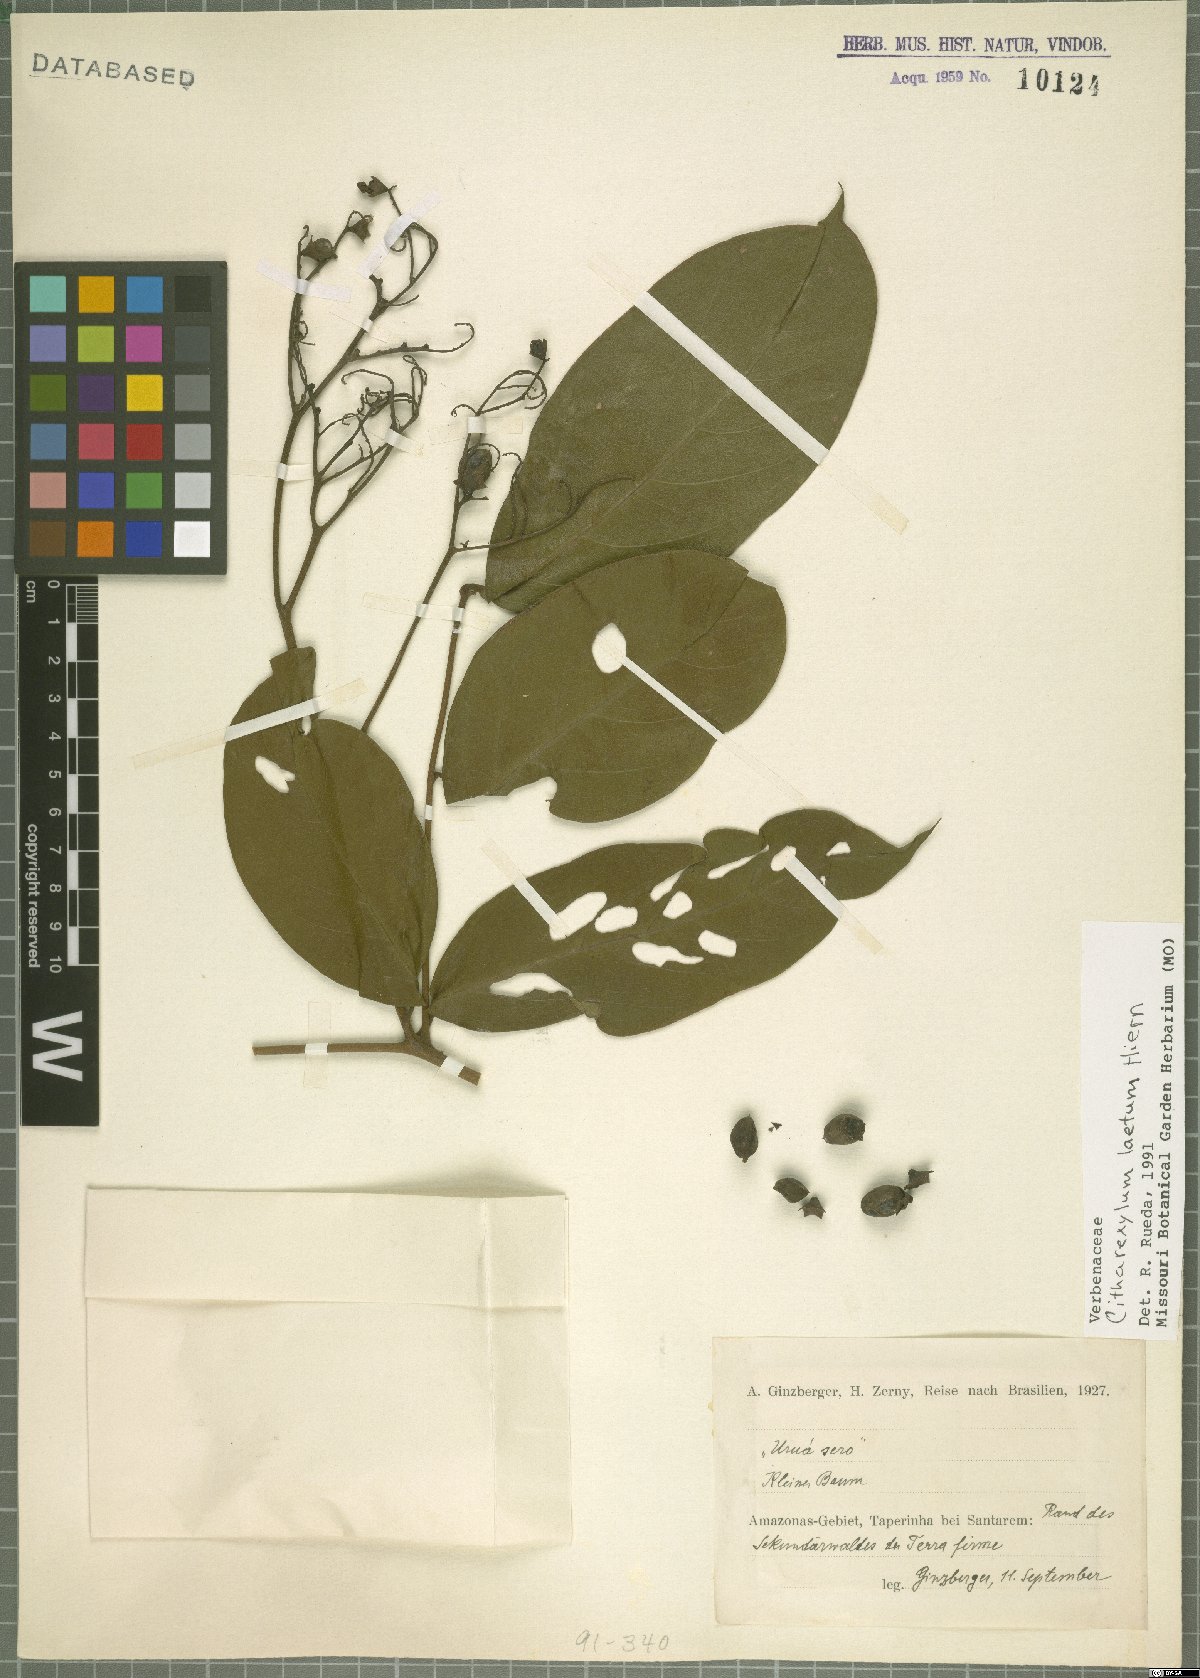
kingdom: Plantae
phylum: Tracheophyta
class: Magnoliopsida
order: Lamiales
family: Verbenaceae
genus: Citharexylum
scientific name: Citharexylum myrianthum
